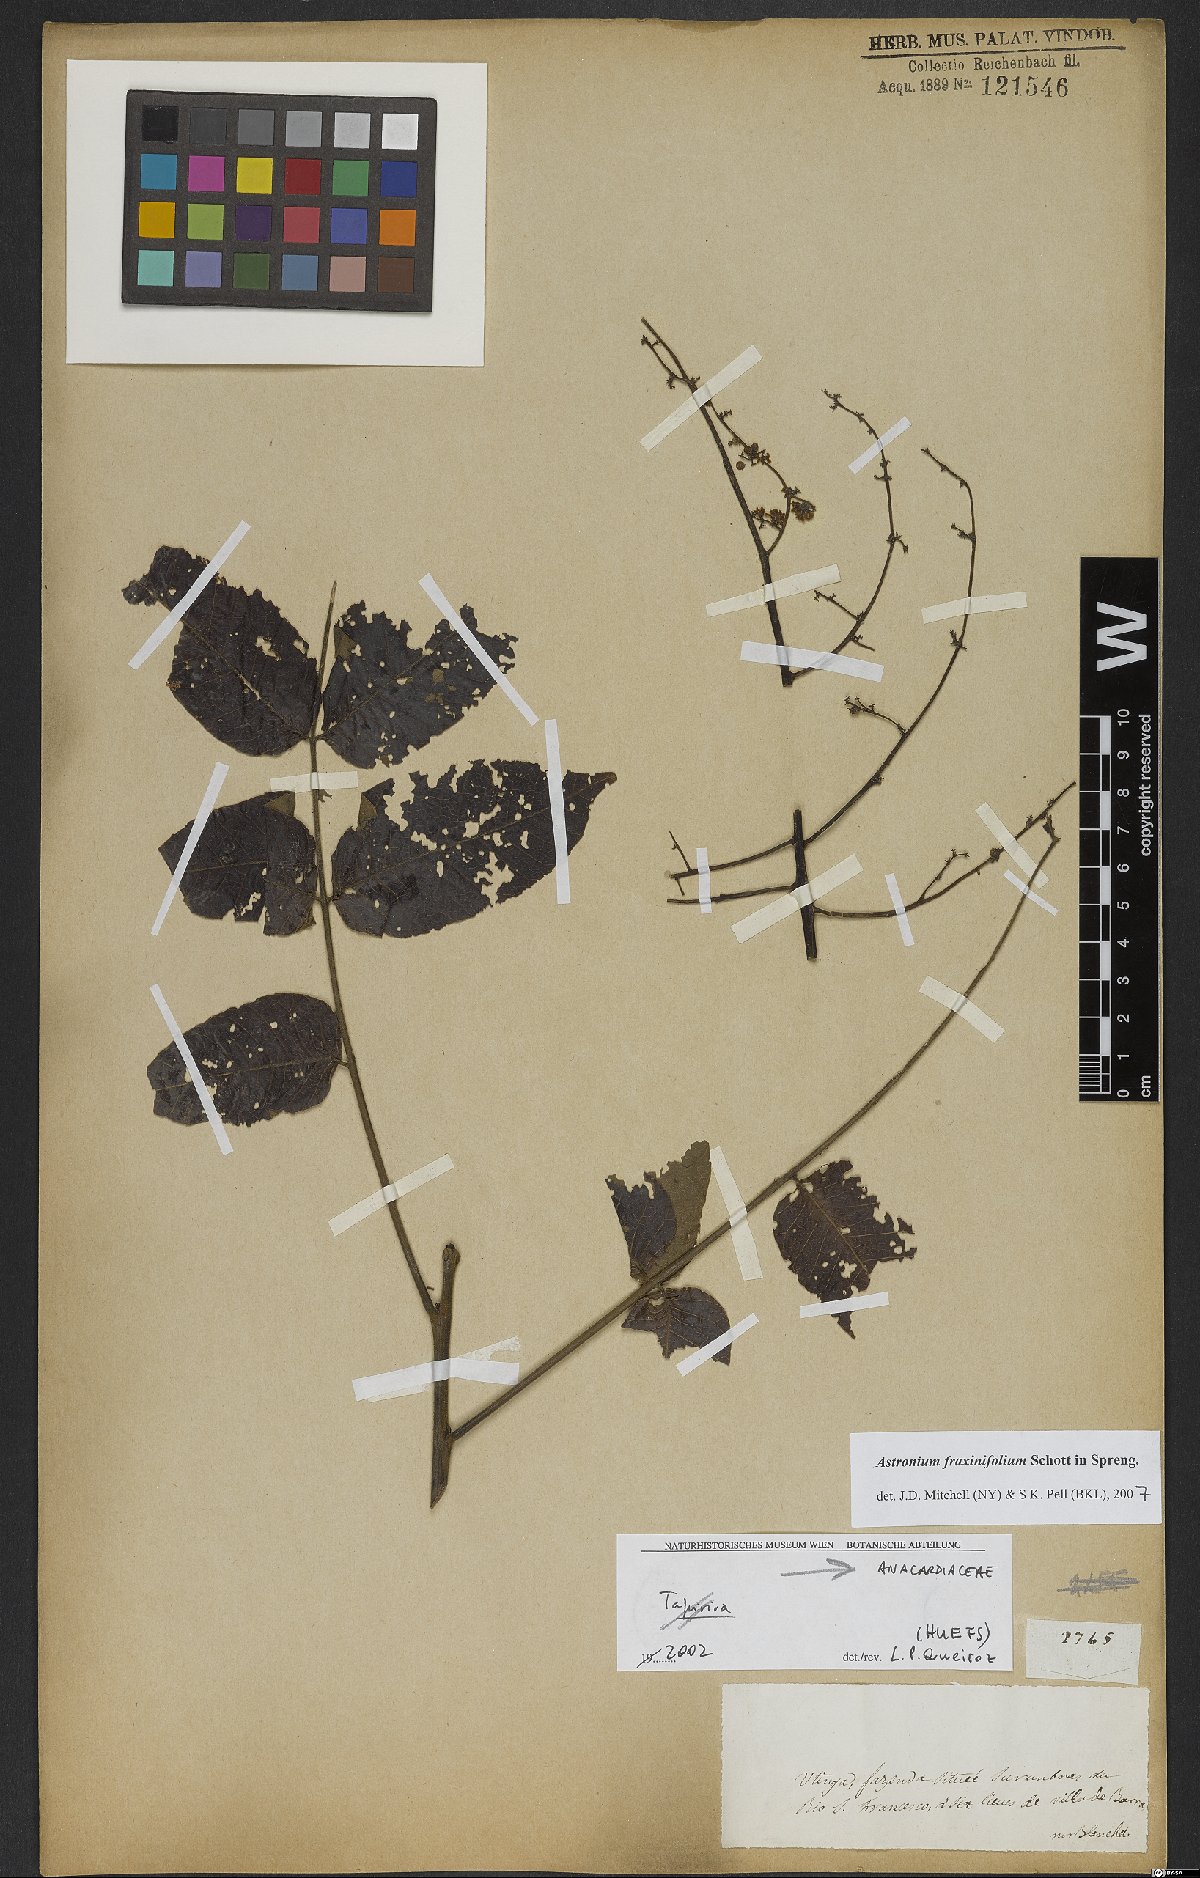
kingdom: Plantae
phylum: Tracheophyta
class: Magnoliopsida
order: Sapindales
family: Anacardiaceae
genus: Astronium
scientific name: Astronium fraxinifolium
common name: Tigerwood
